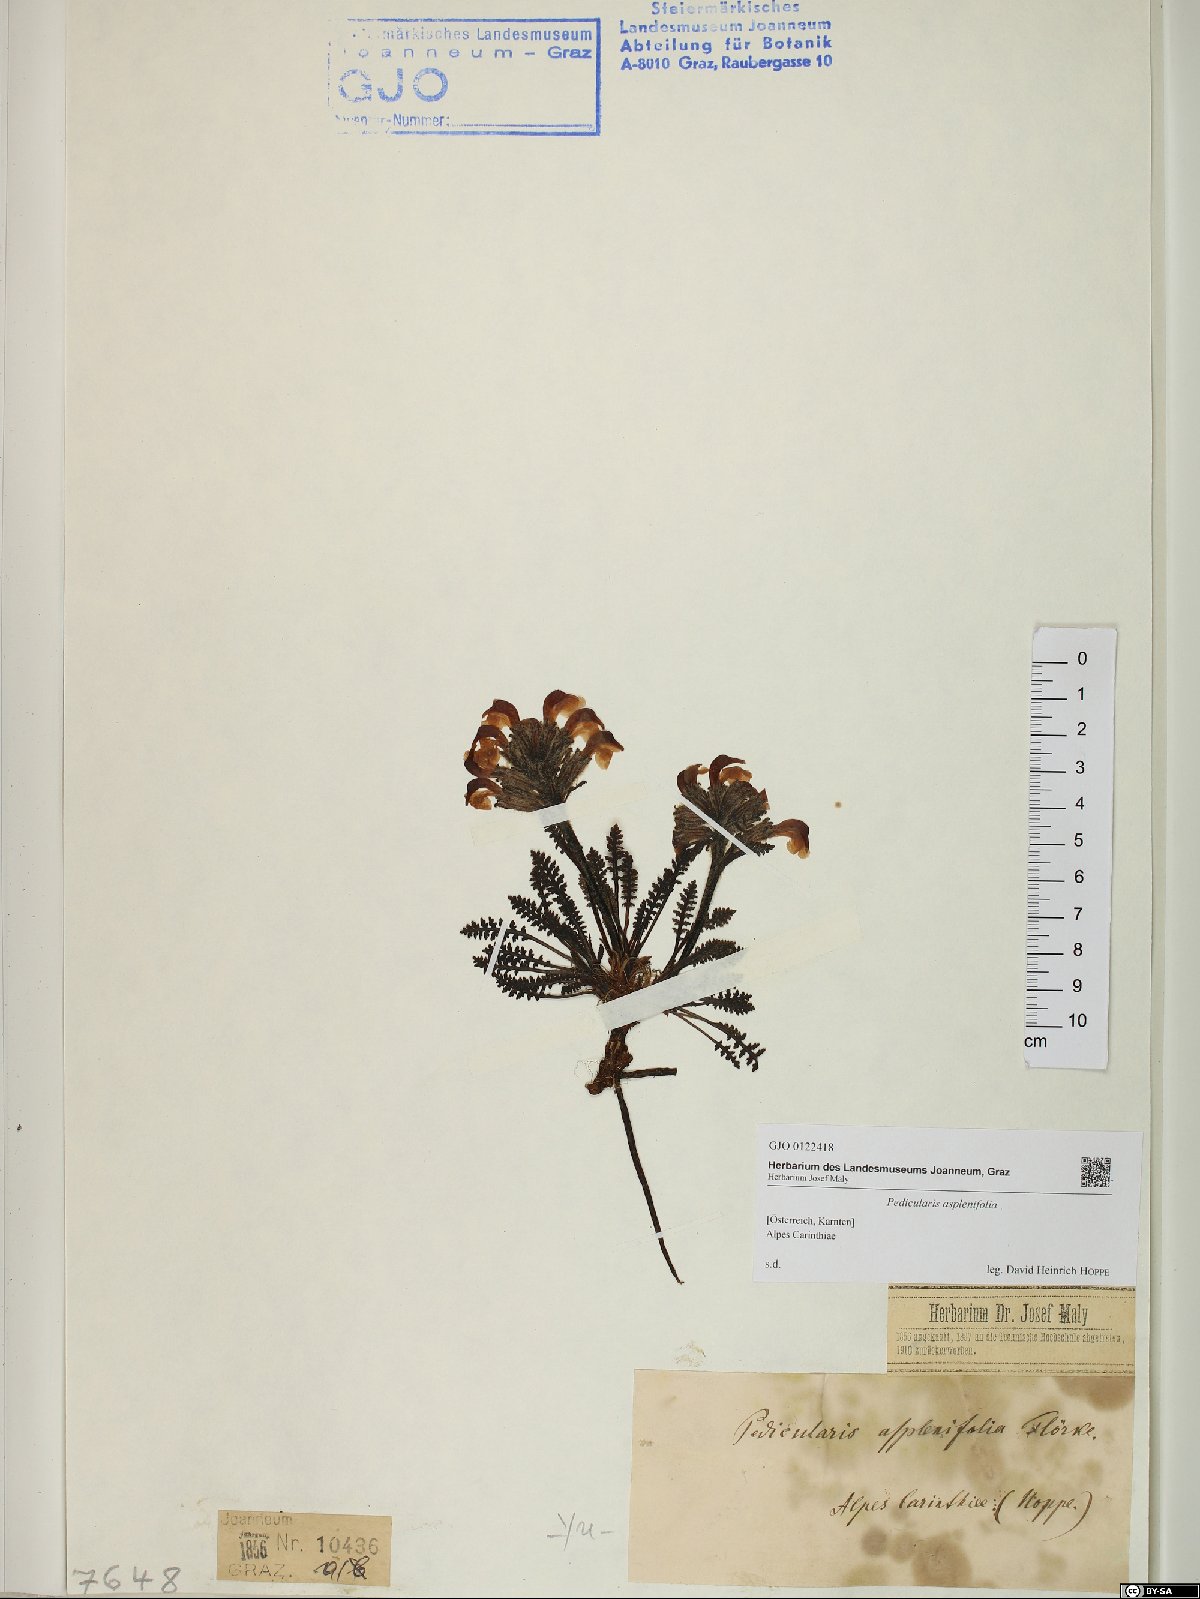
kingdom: Plantae
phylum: Tracheophyta
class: Magnoliopsida
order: Lamiales
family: Orobanchaceae
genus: Pedicularis
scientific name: Pedicularis asplenifolia
